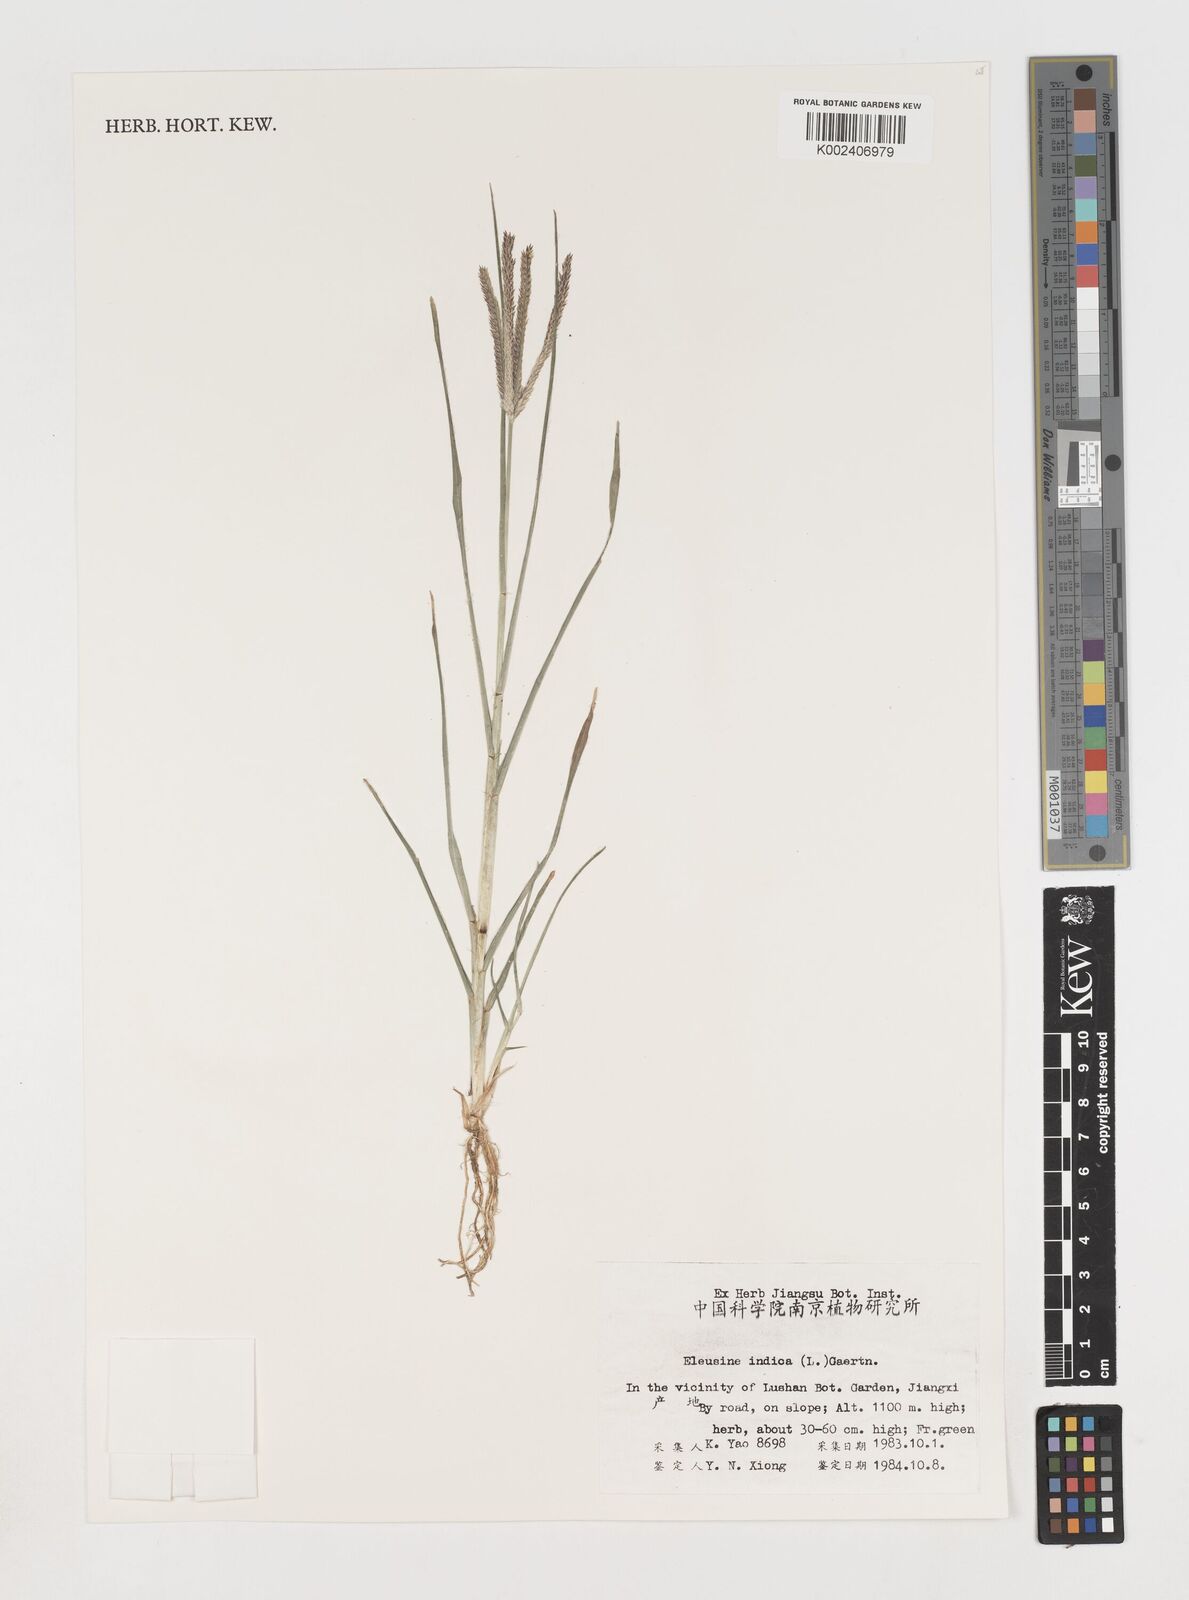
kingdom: Plantae
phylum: Tracheophyta
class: Liliopsida
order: Poales
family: Poaceae
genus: Eleusine
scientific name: Eleusine indica
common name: Yard-grass
